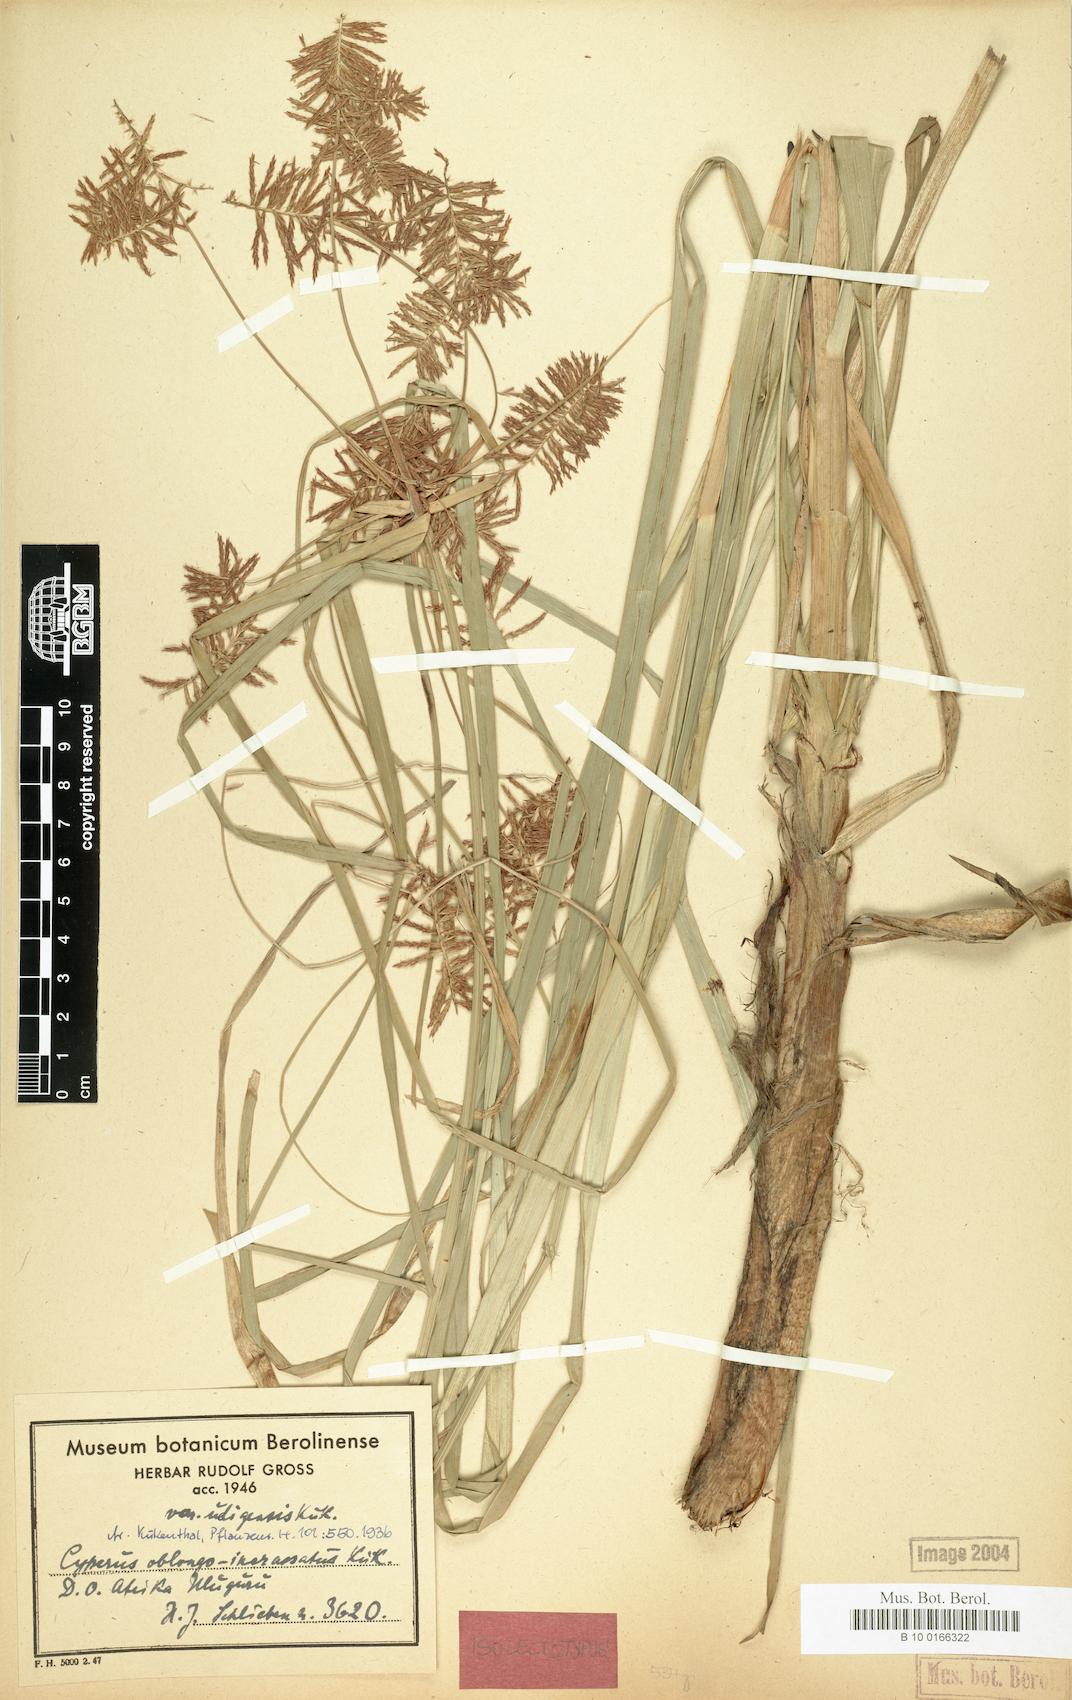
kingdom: Plantae
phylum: Tracheophyta
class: Liliopsida
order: Poales
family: Cyperaceae
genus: Cyperus
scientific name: Cyperus oblongoincrassatus
